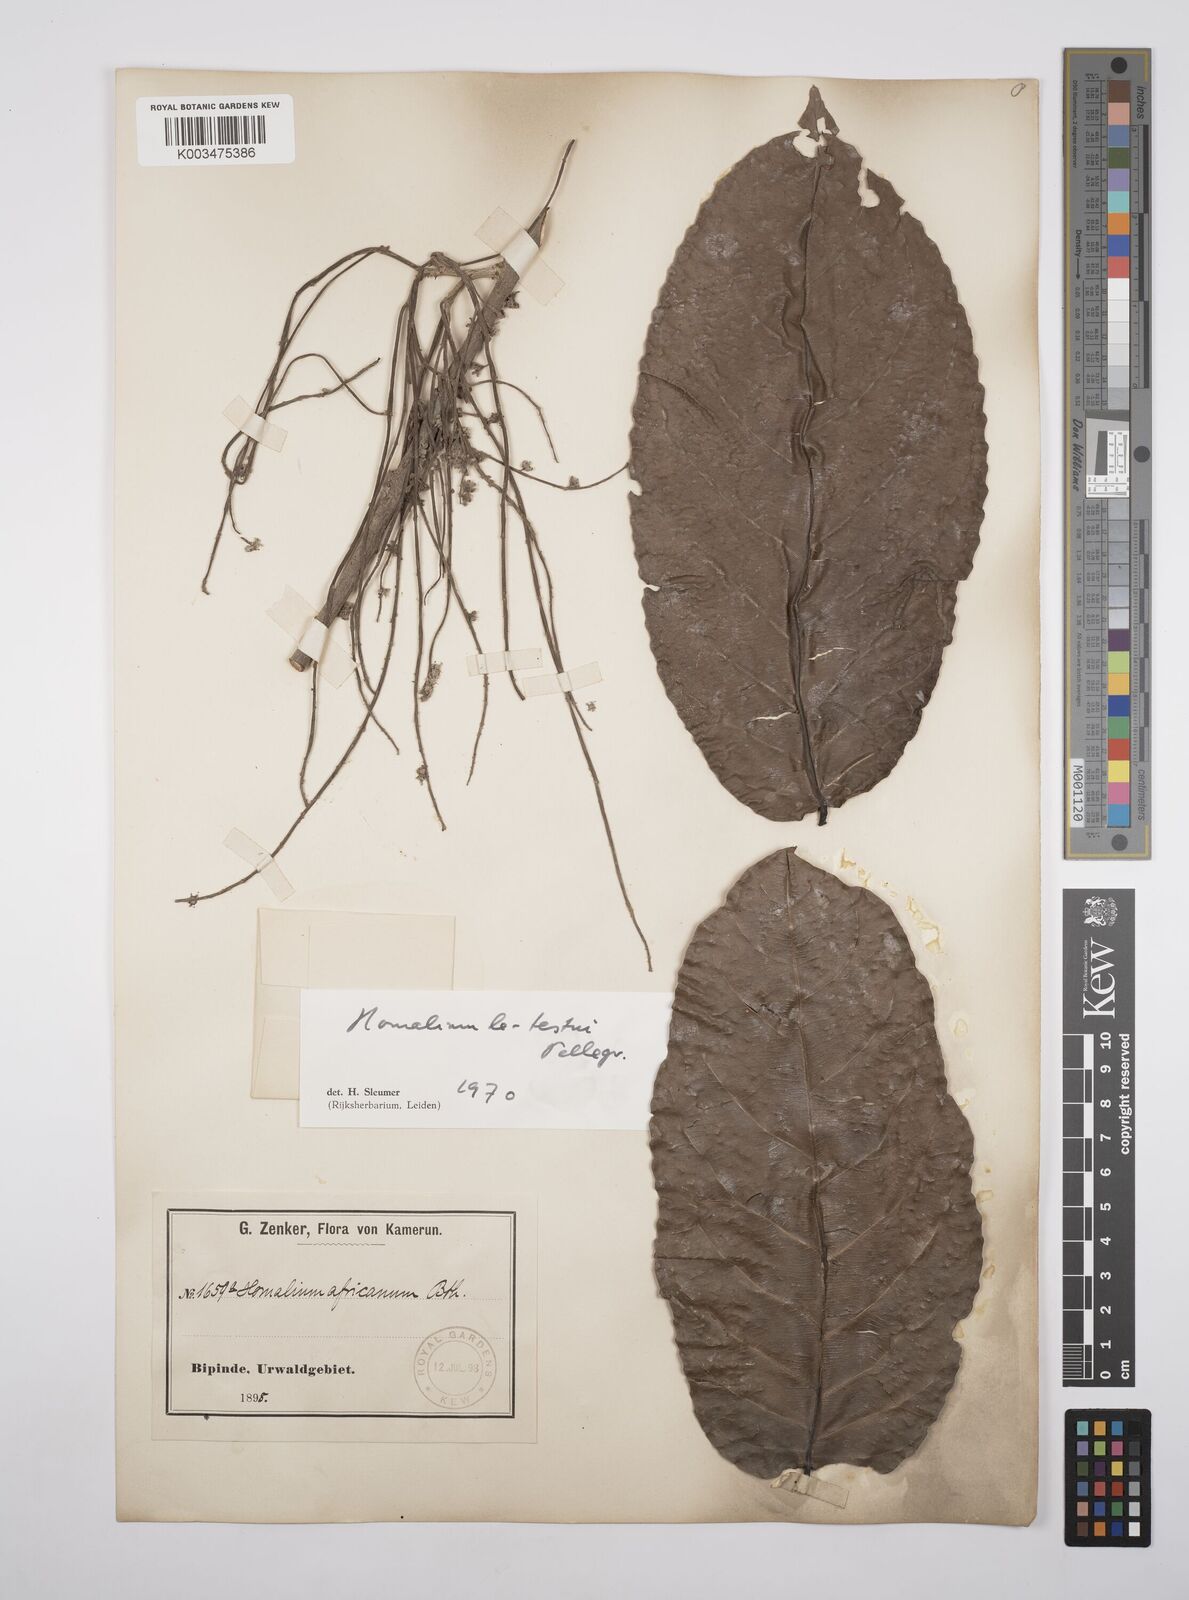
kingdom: Plantae
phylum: Tracheophyta
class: Magnoliopsida
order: Malpighiales
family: Salicaceae
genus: Homalium
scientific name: Homalium letestui
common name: African homalium
